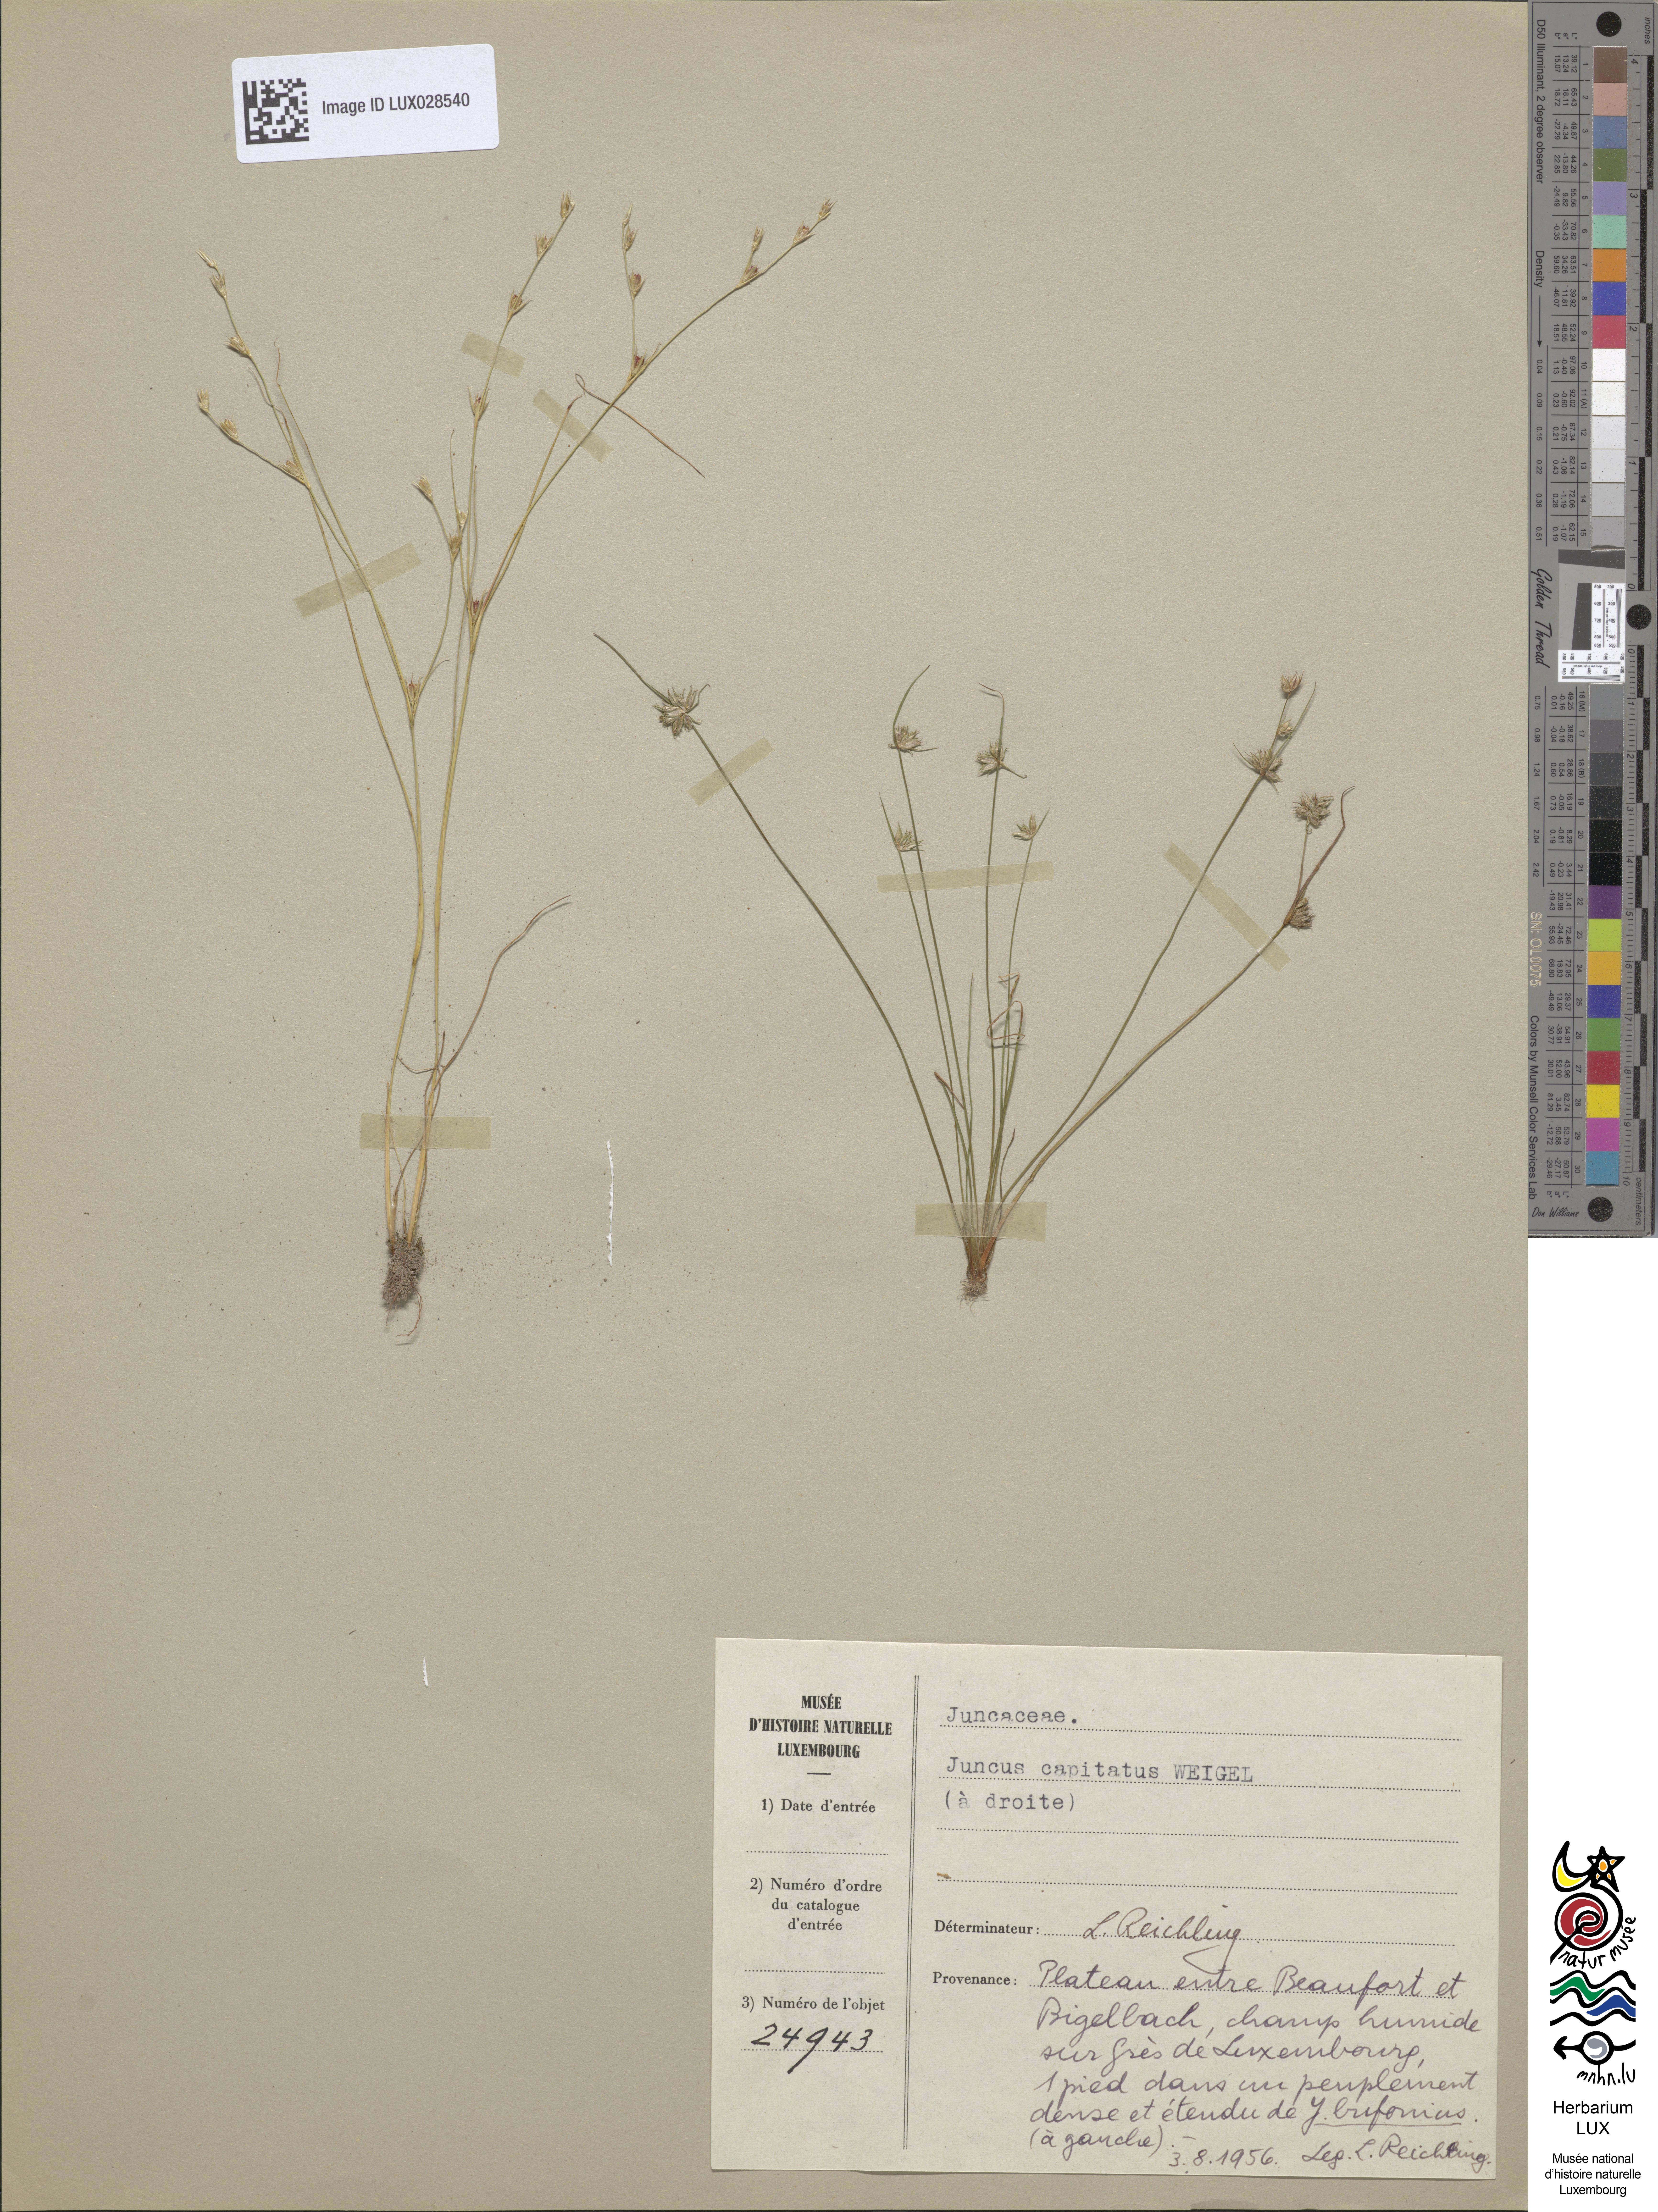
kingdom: Plantae
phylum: Tracheophyta
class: Liliopsida
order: Poales
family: Juncaceae
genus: Juncus
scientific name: Juncus capitatus
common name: Dwarf rush
